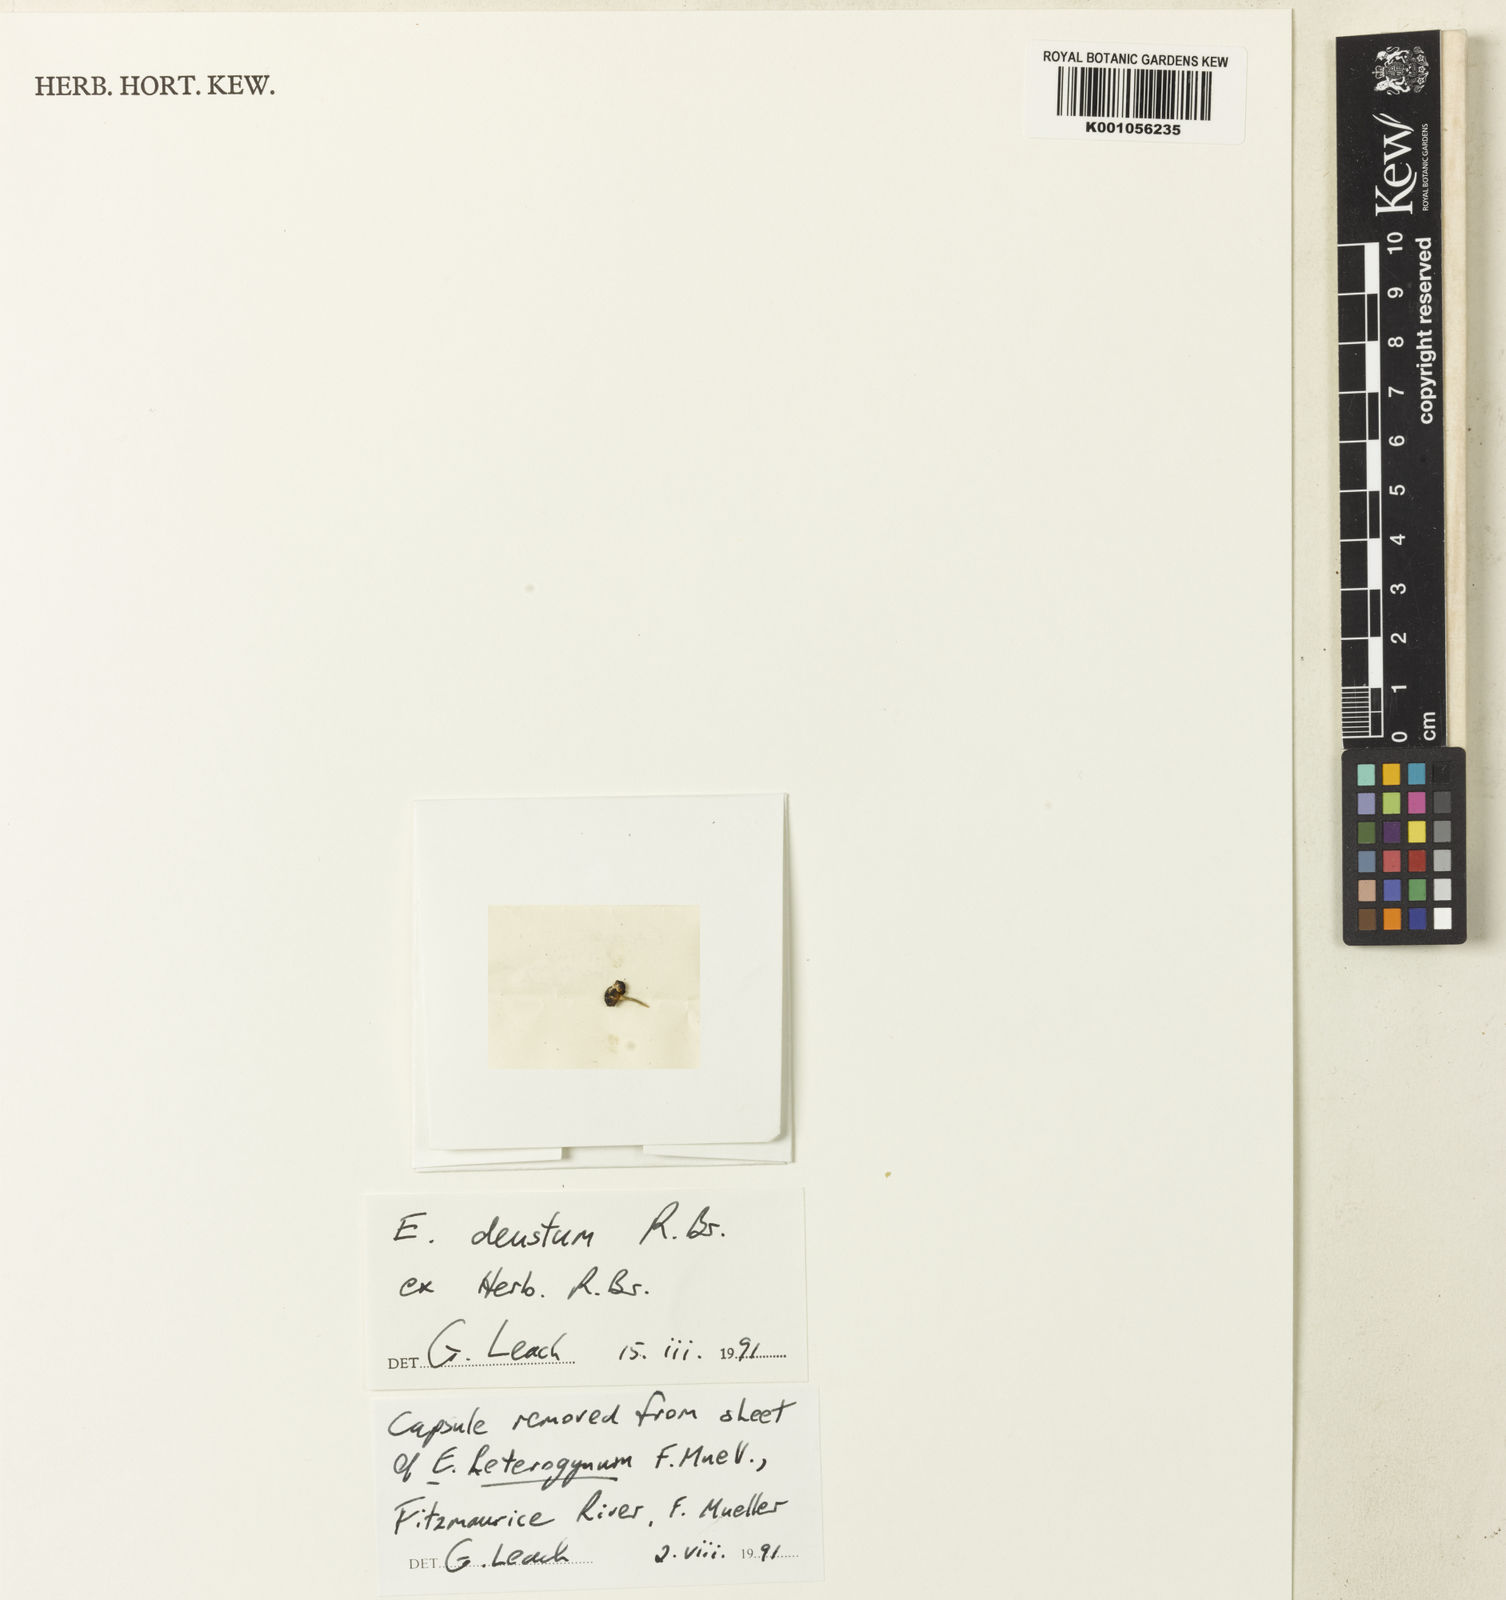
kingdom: Plantae
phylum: Tracheophyta
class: Liliopsida
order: Poales
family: Eriocaulaceae
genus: Eriocaulon
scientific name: Eriocaulon depressum
